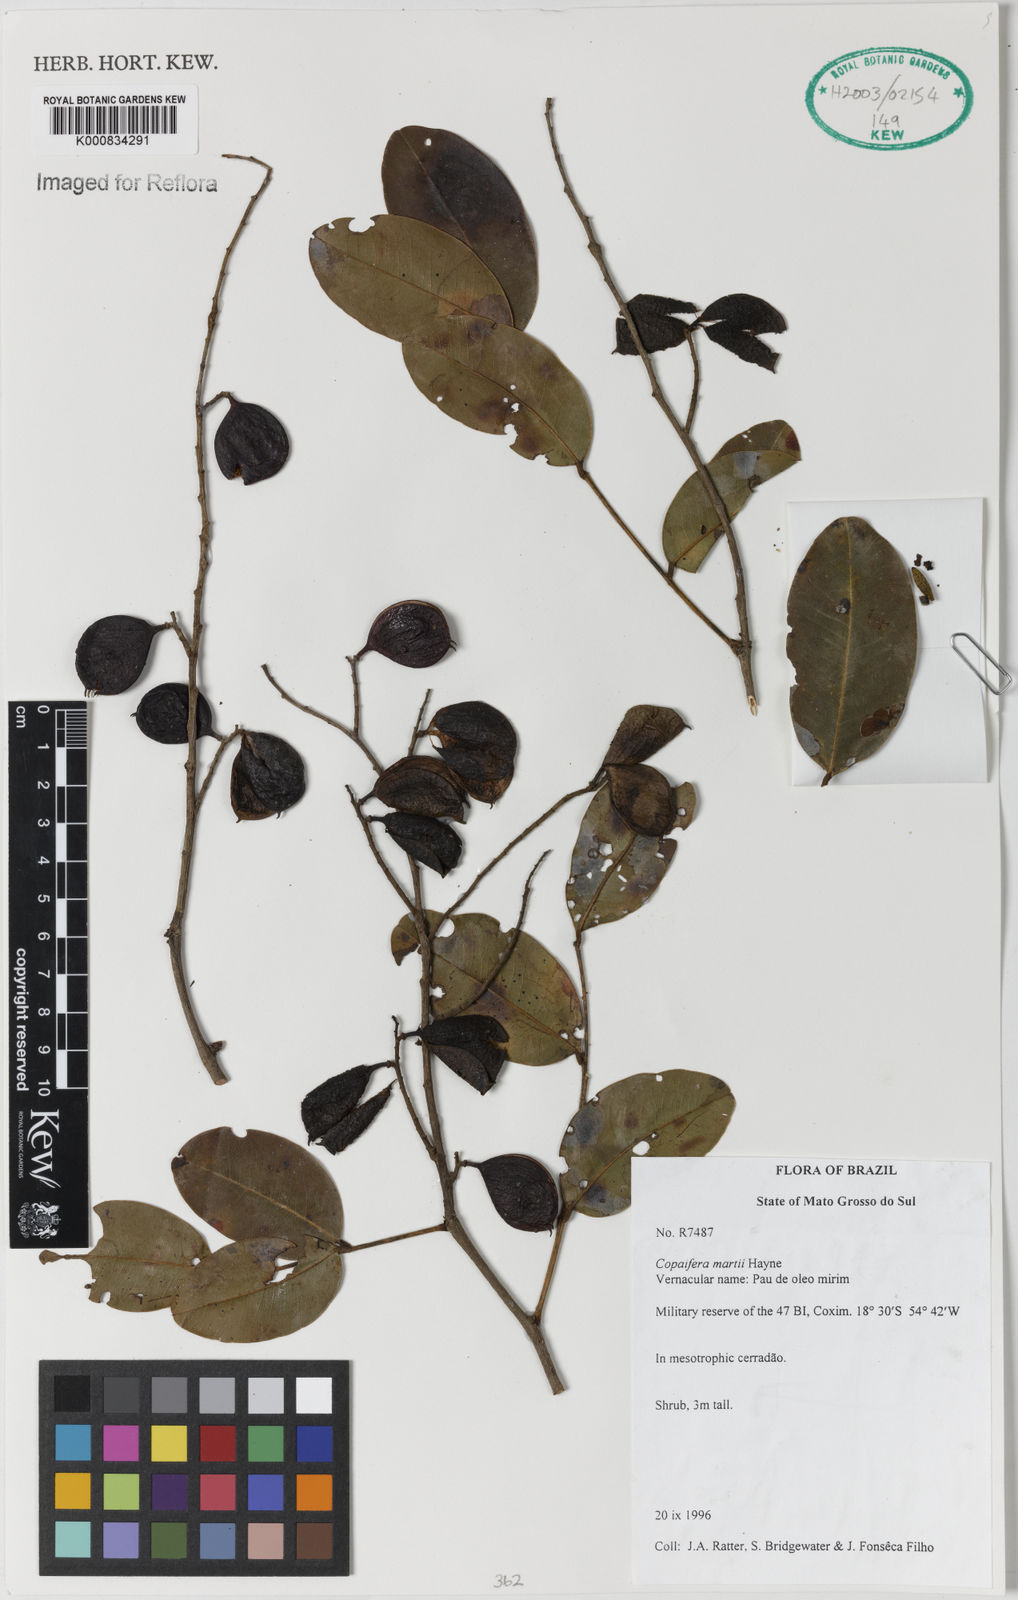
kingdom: Plantae
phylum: Tracheophyta
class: Magnoliopsida
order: Fabales
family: Fabaceae
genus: Copaifera
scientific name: Copaifera martii
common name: Copaiba
